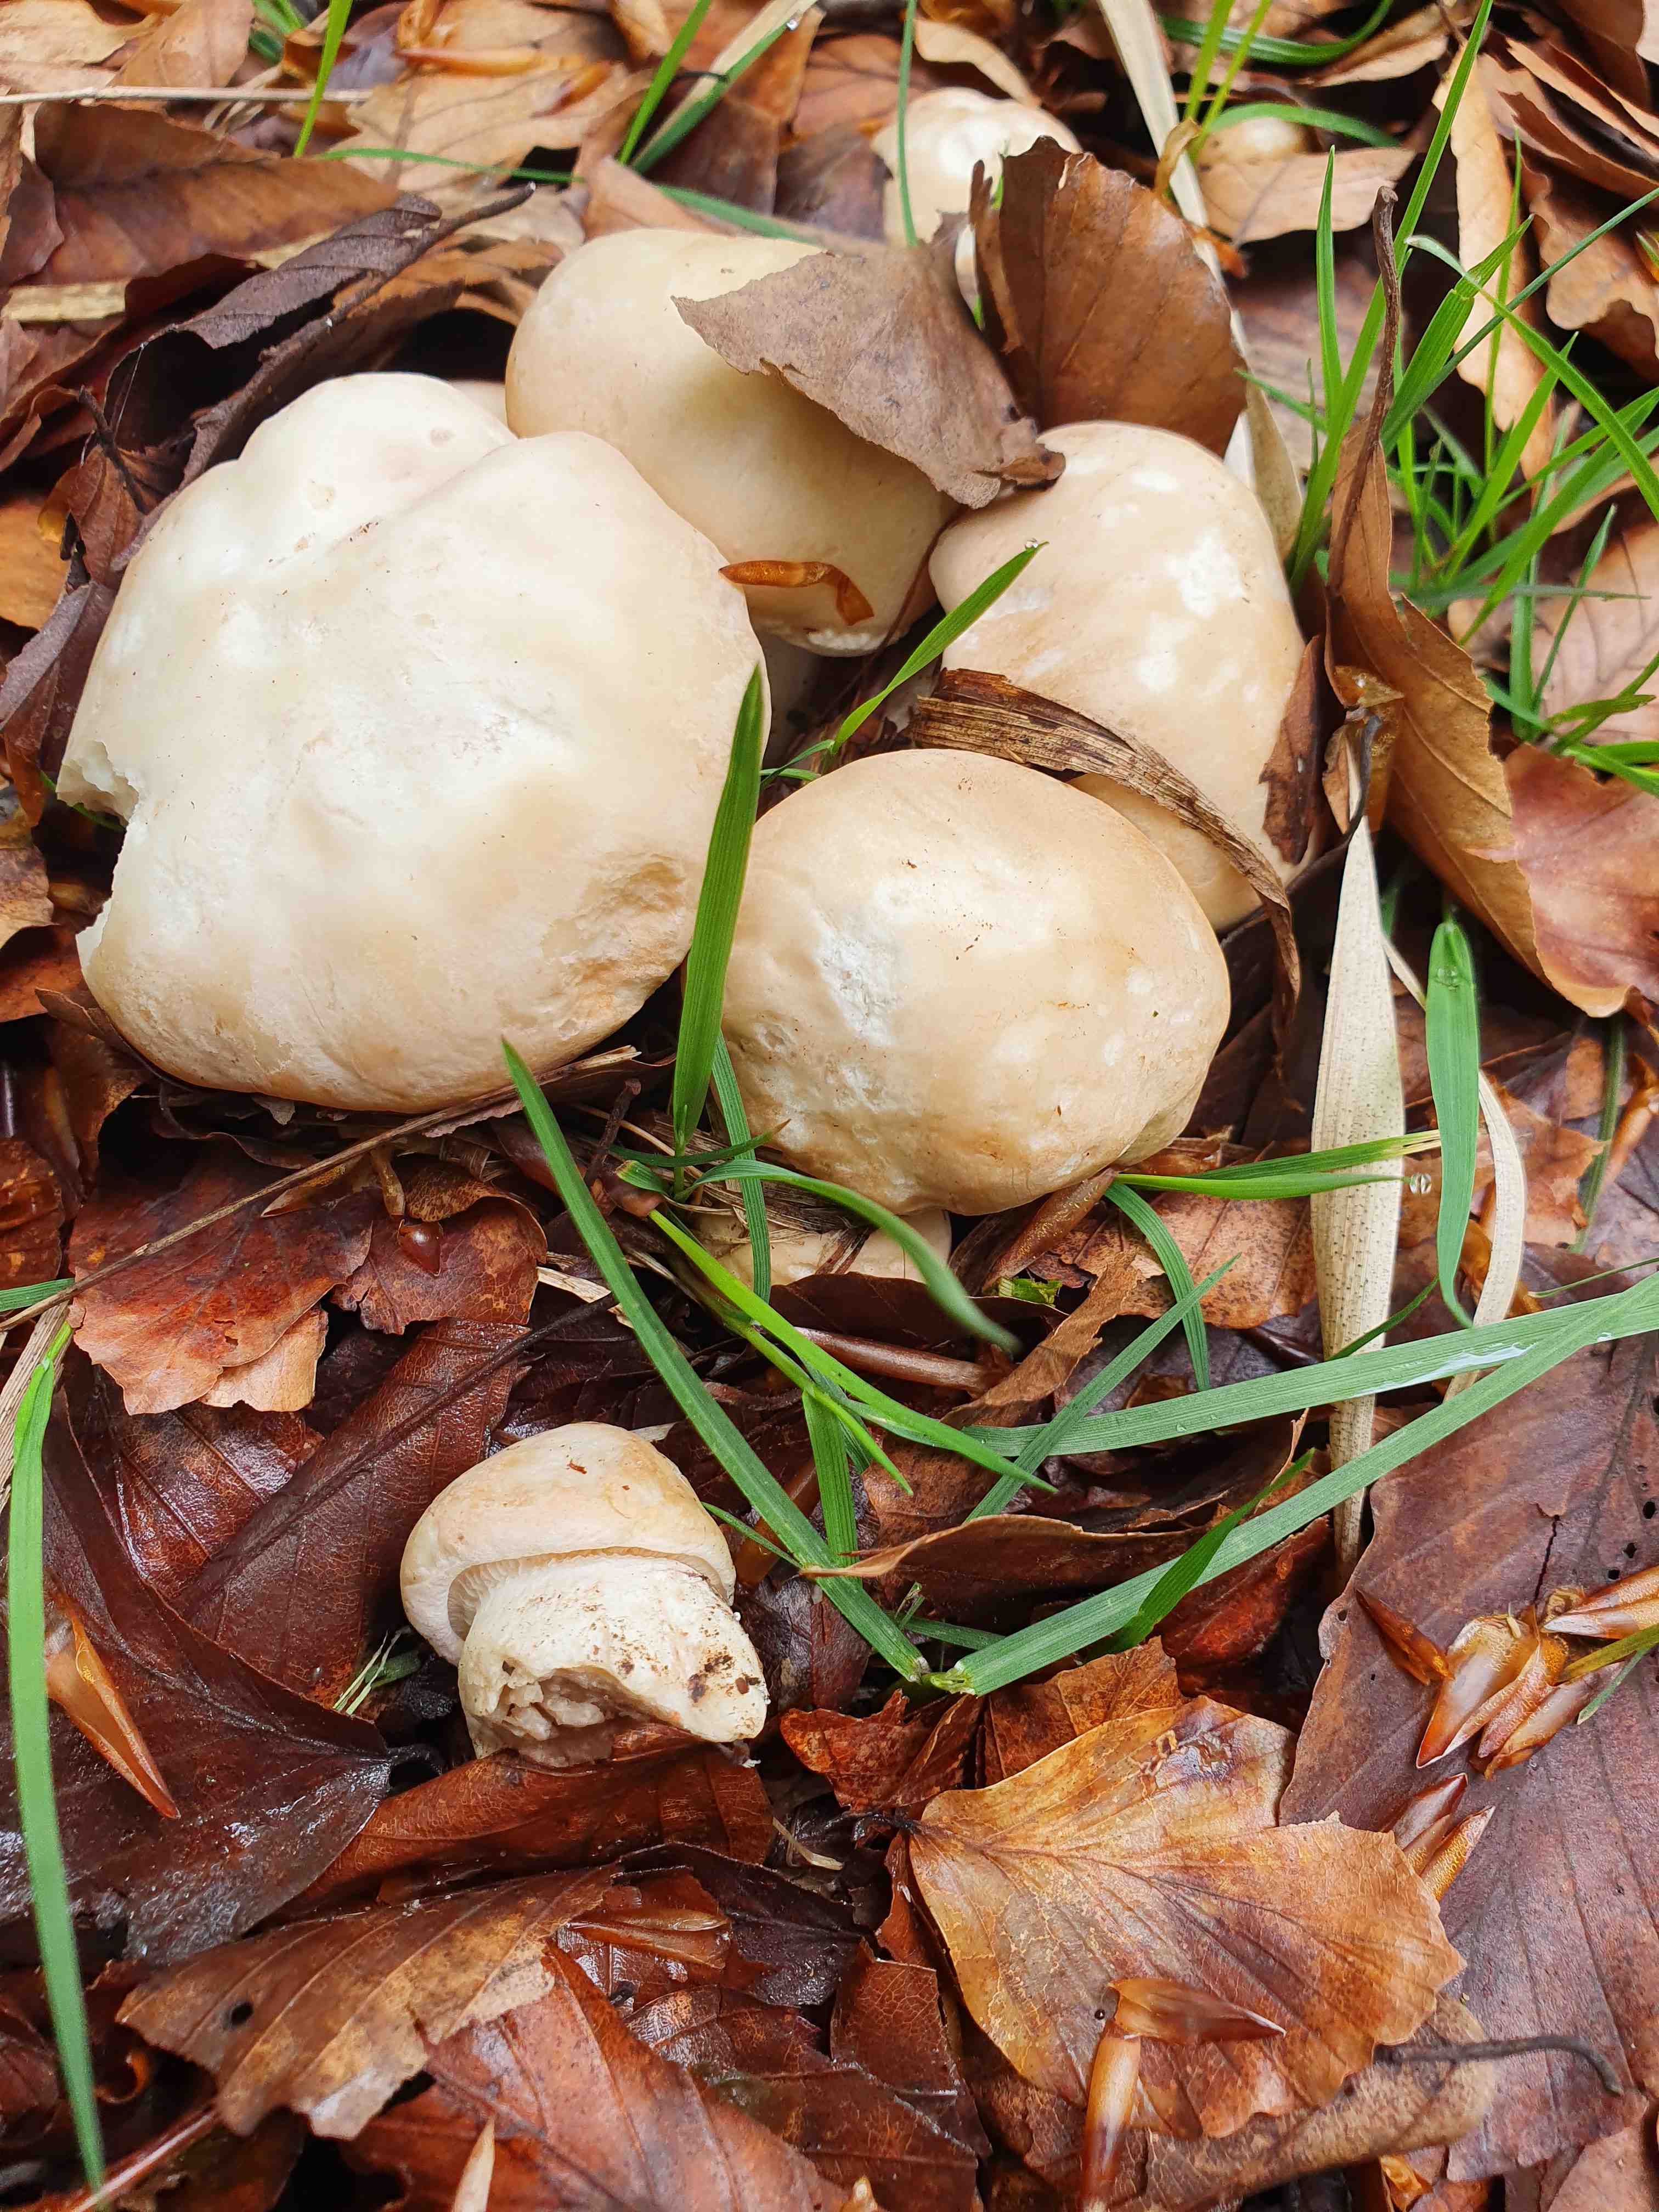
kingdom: Fungi
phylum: Basidiomycota
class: Agaricomycetes
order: Agaricales
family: Lyophyllaceae
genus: Calocybe
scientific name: Calocybe gambosa
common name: vårmusseron
